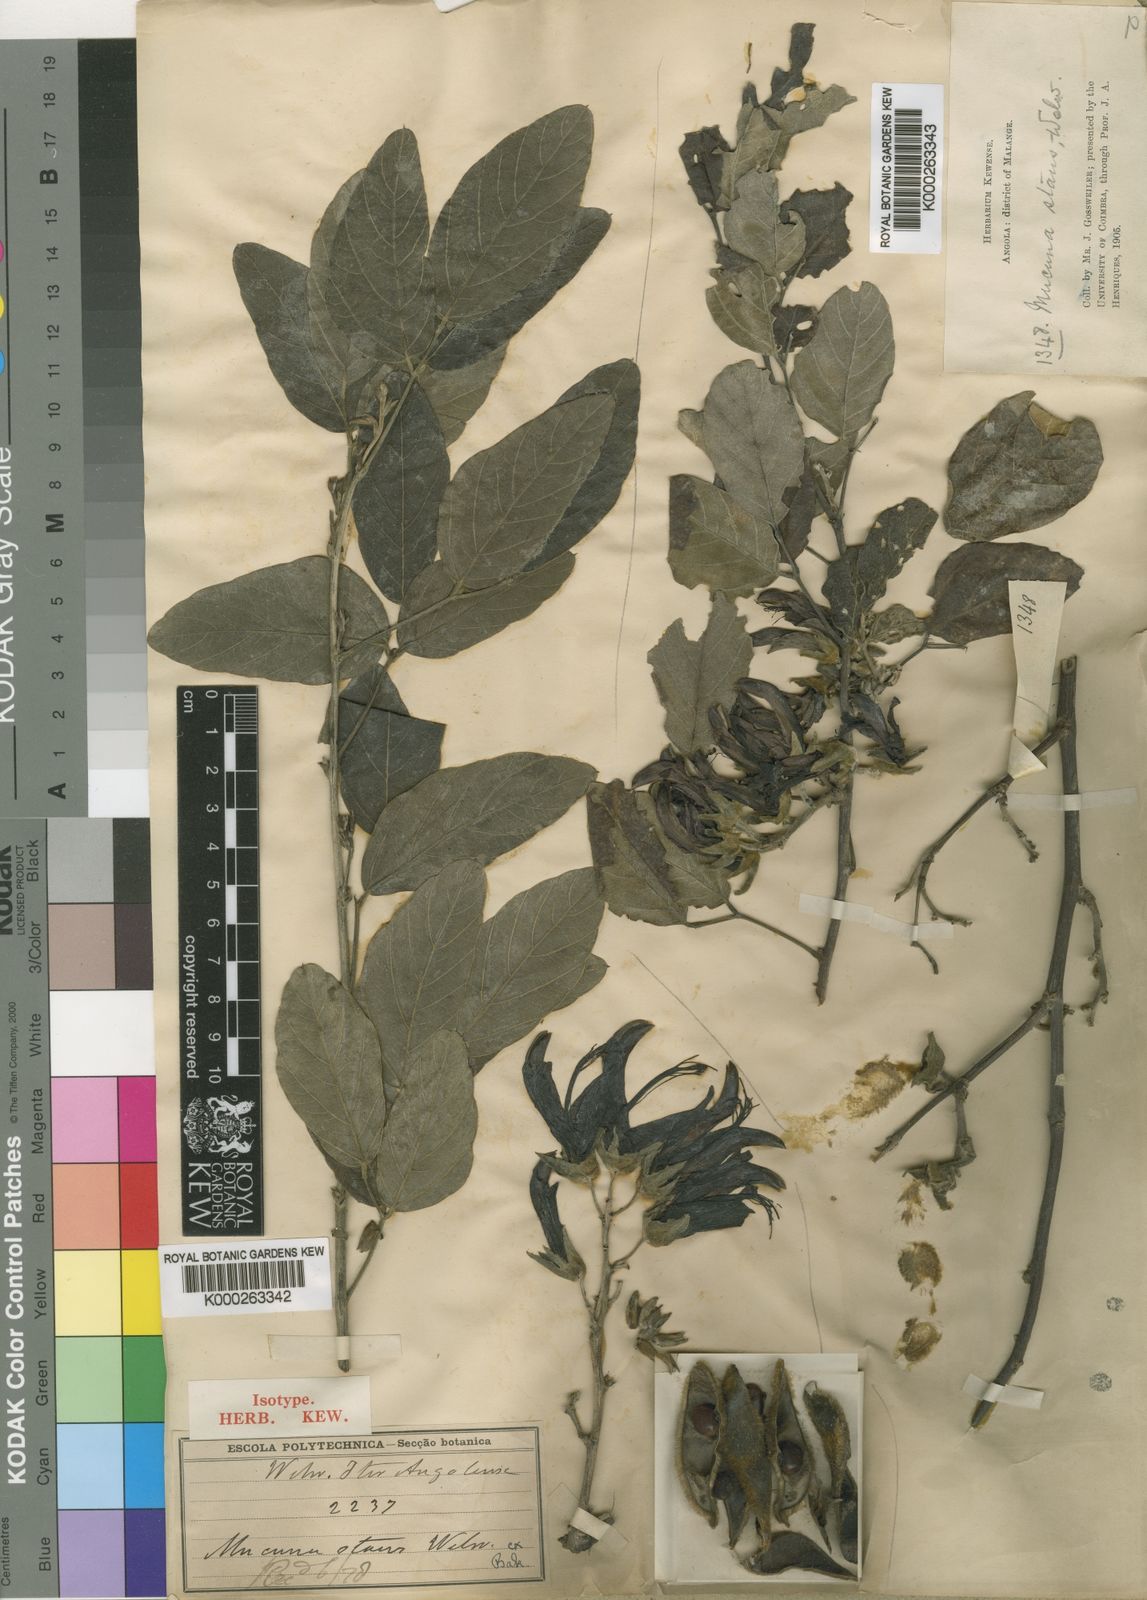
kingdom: Plantae
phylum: Tracheophyta
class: Magnoliopsida
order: Fabales
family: Fabaceae
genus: Mucuna
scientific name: Mucuna stans
